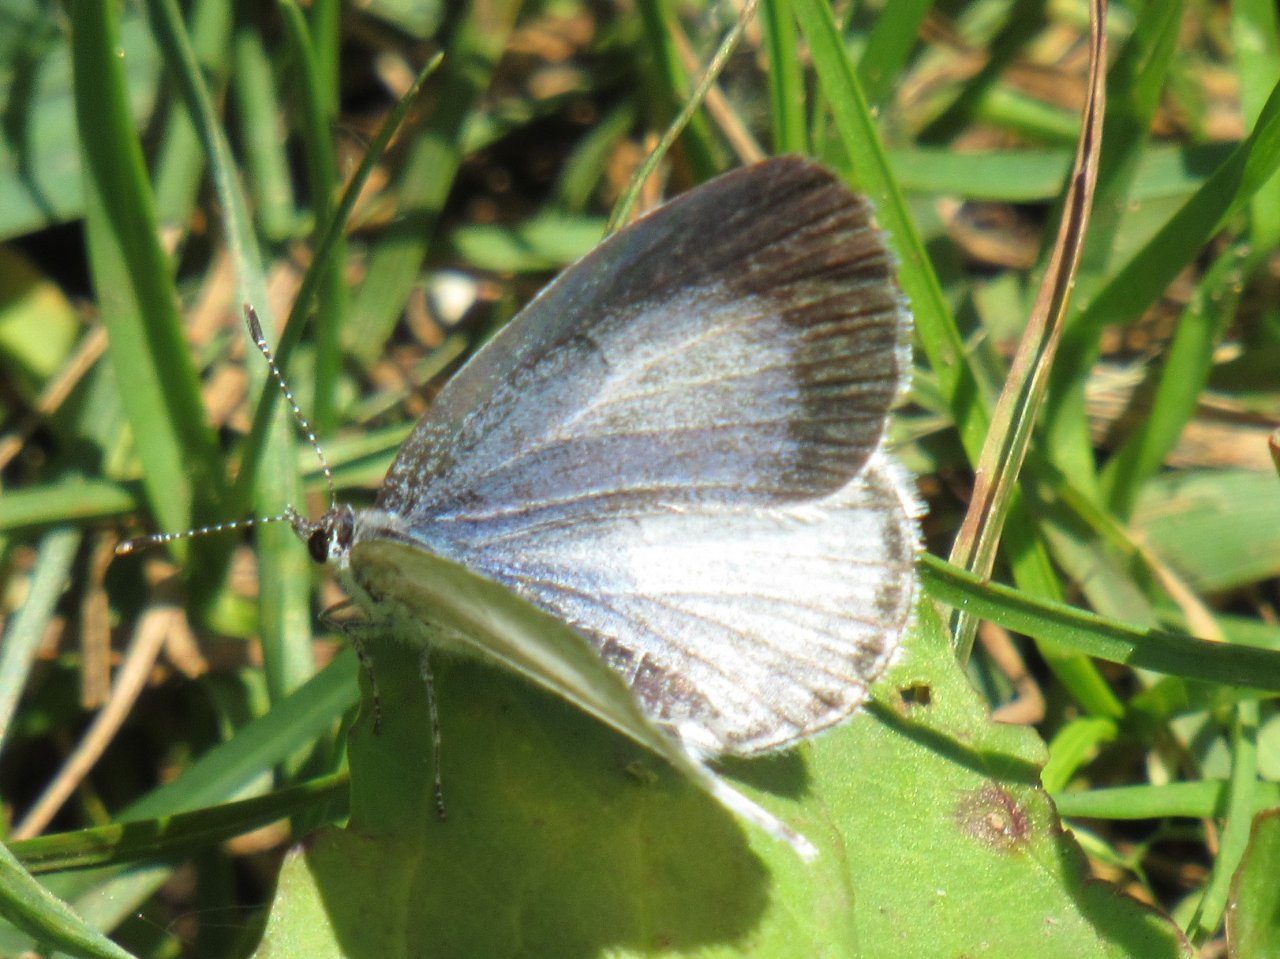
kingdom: Animalia
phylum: Arthropoda
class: Insecta
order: Lepidoptera
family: Lycaenidae
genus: Cyaniris
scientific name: Cyaniris neglecta
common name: Summer Azure
